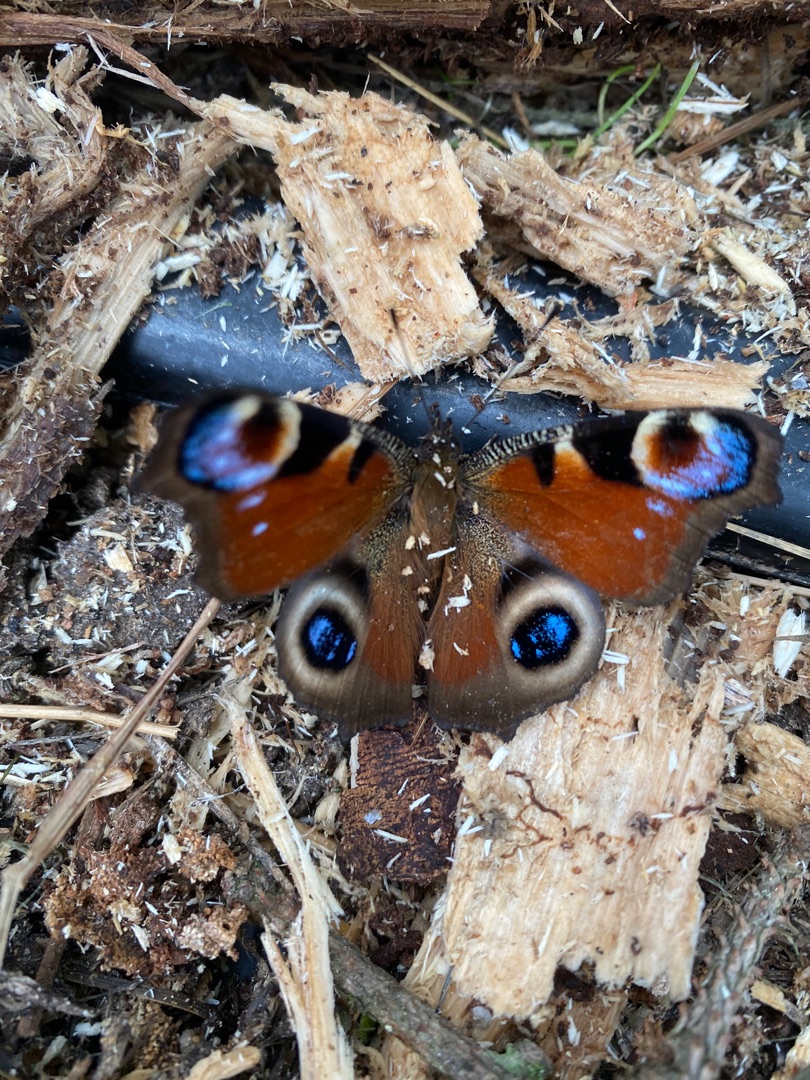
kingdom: Animalia
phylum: Arthropoda
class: Insecta
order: Lepidoptera
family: Nymphalidae
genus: Aglais
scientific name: Aglais io
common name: Dagpåfugleøje
